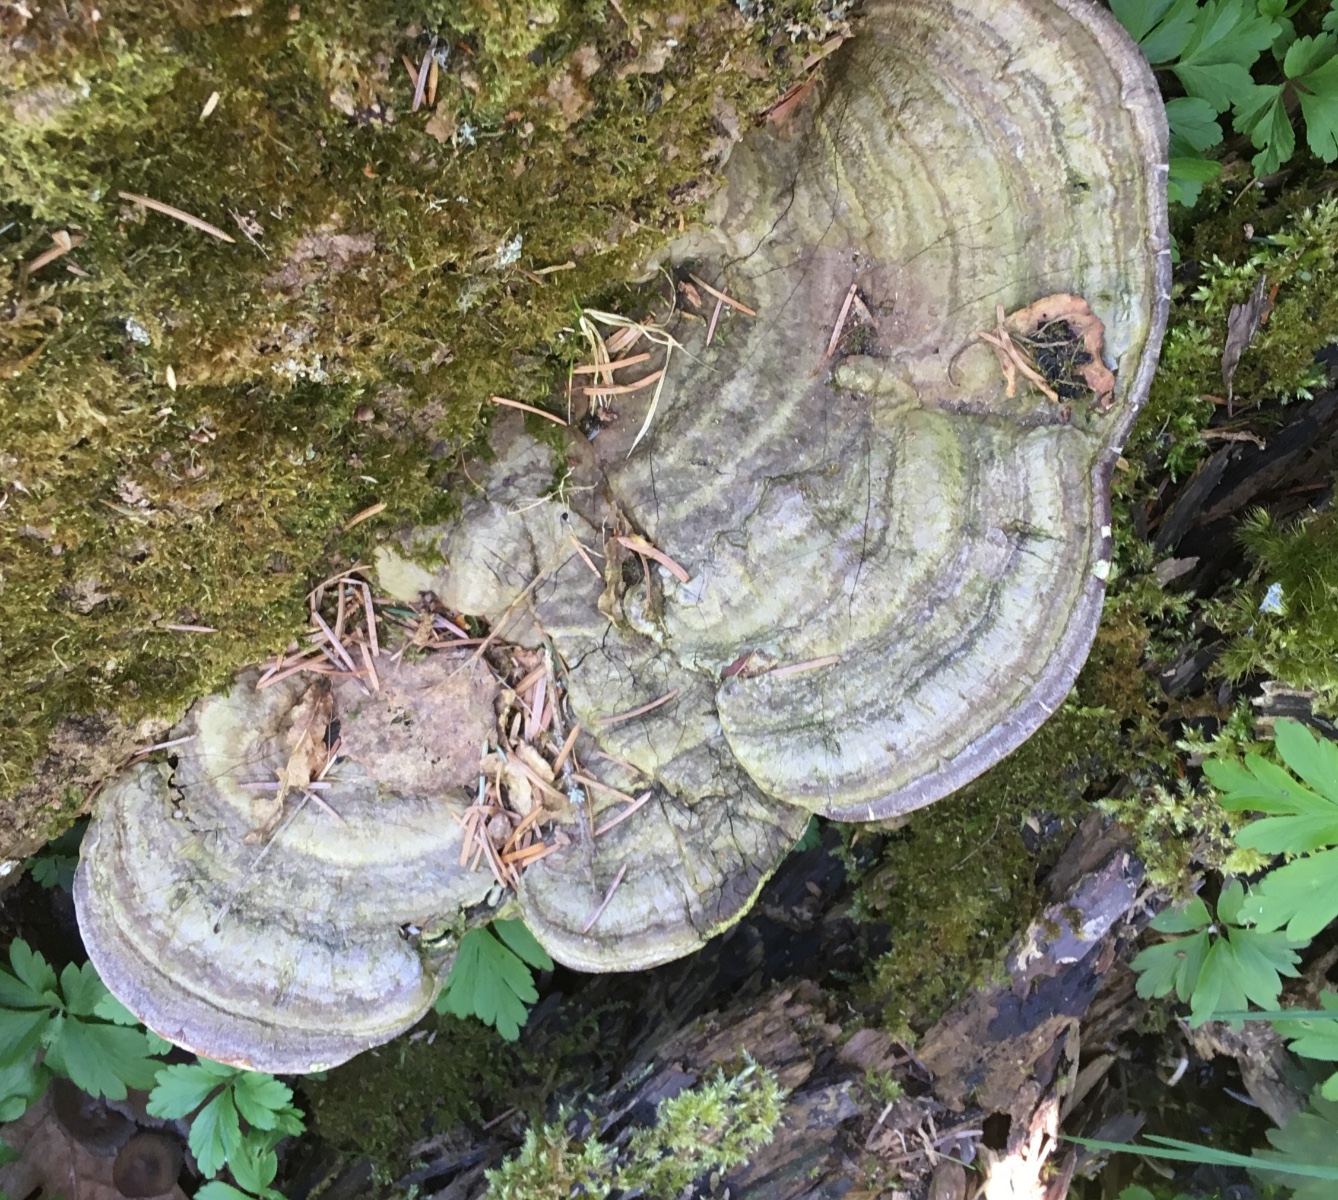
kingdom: Fungi
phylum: Basidiomycota
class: Agaricomycetes
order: Polyporales
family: Polyporaceae
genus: Ganoderma
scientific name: Ganoderma applanatum
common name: flad lakporesvamp
